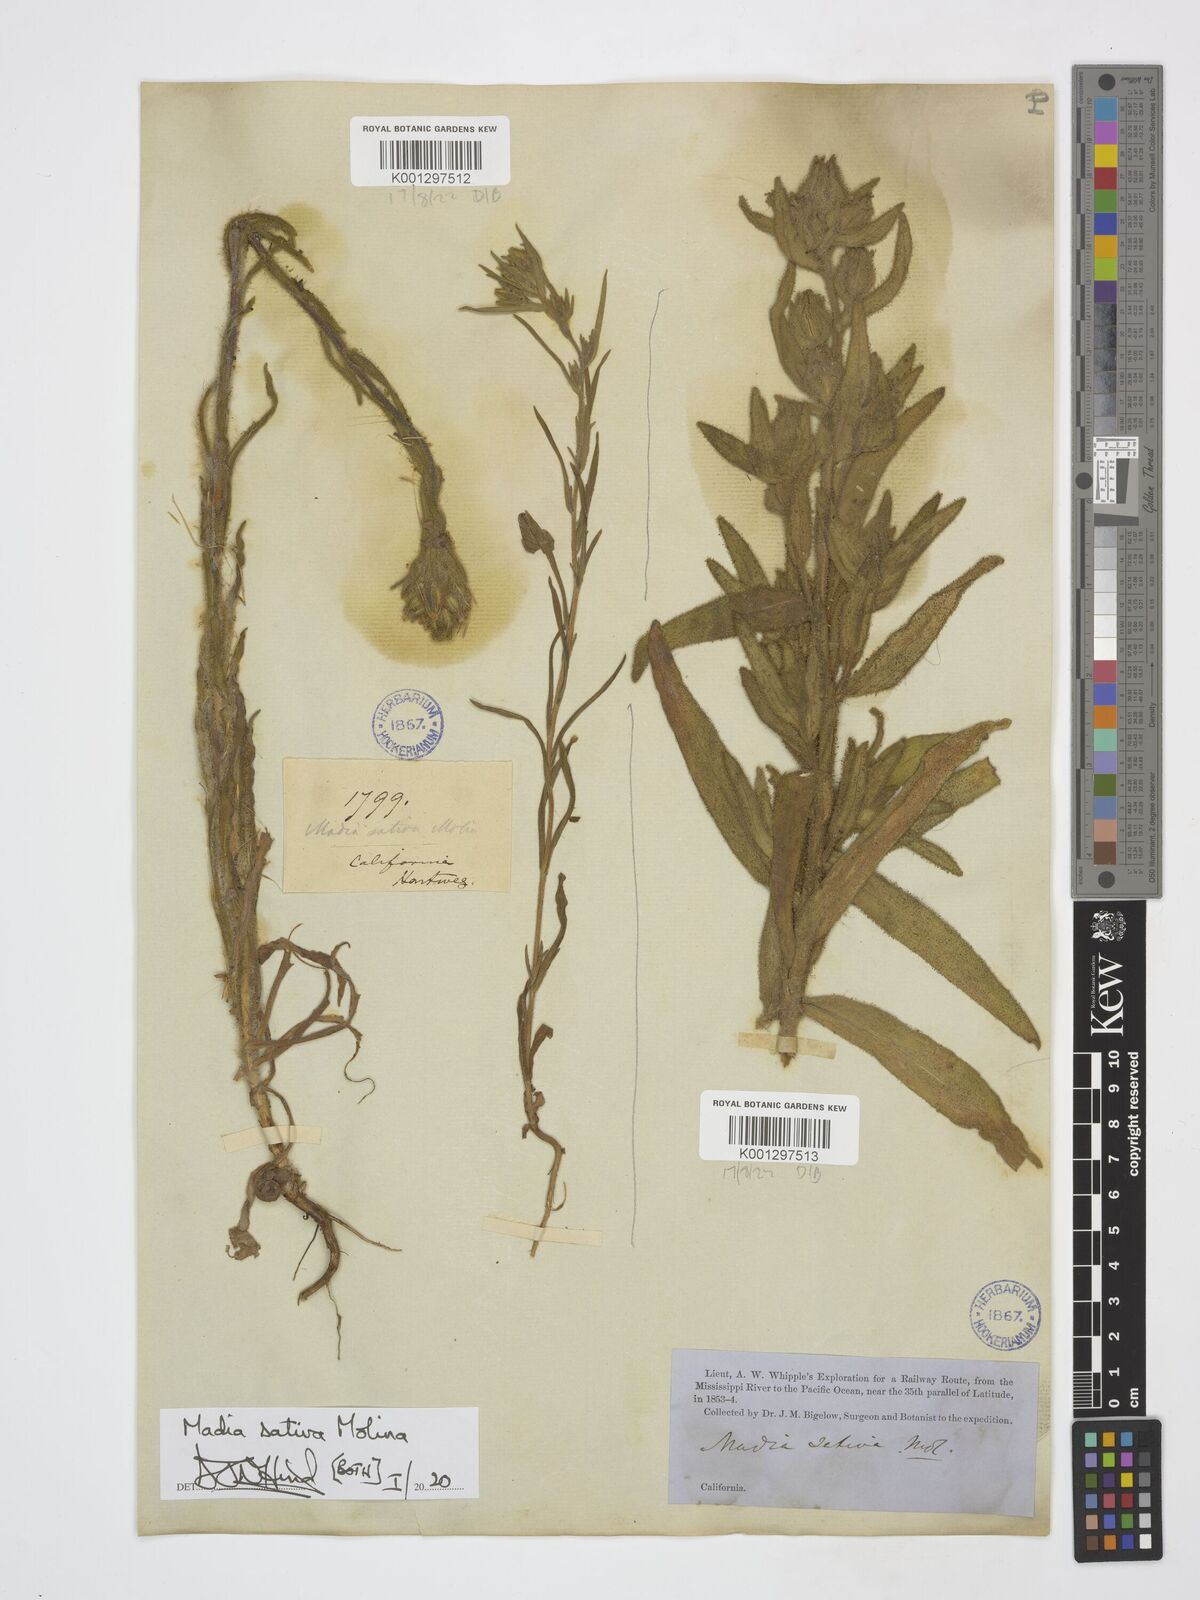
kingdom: Plantae
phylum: Tracheophyta
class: Magnoliopsida
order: Asterales
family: Asteraceae
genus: Madia
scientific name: Madia sativa
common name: Coast tarweed
